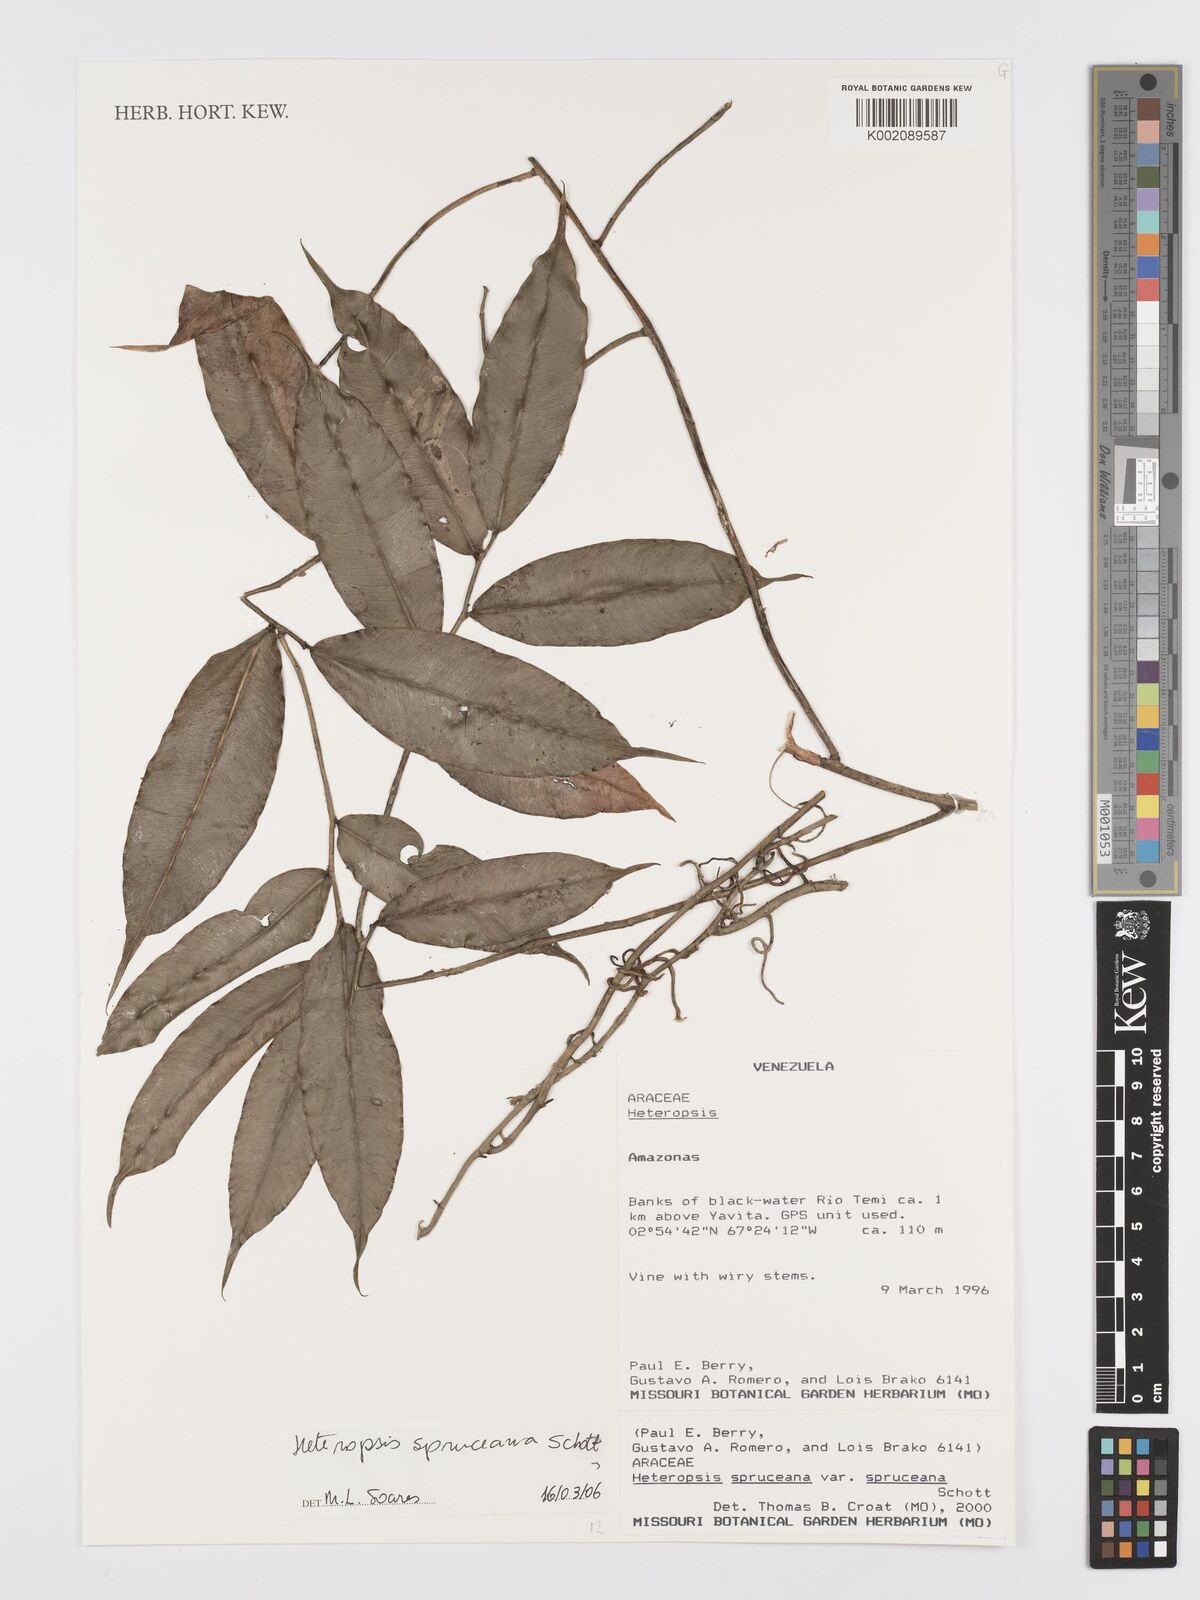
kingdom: Plantae
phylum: Tracheophyta
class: Liliopsida
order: Alismatales
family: Araceae
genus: Heteropsis
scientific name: Heteropsis spruceana
